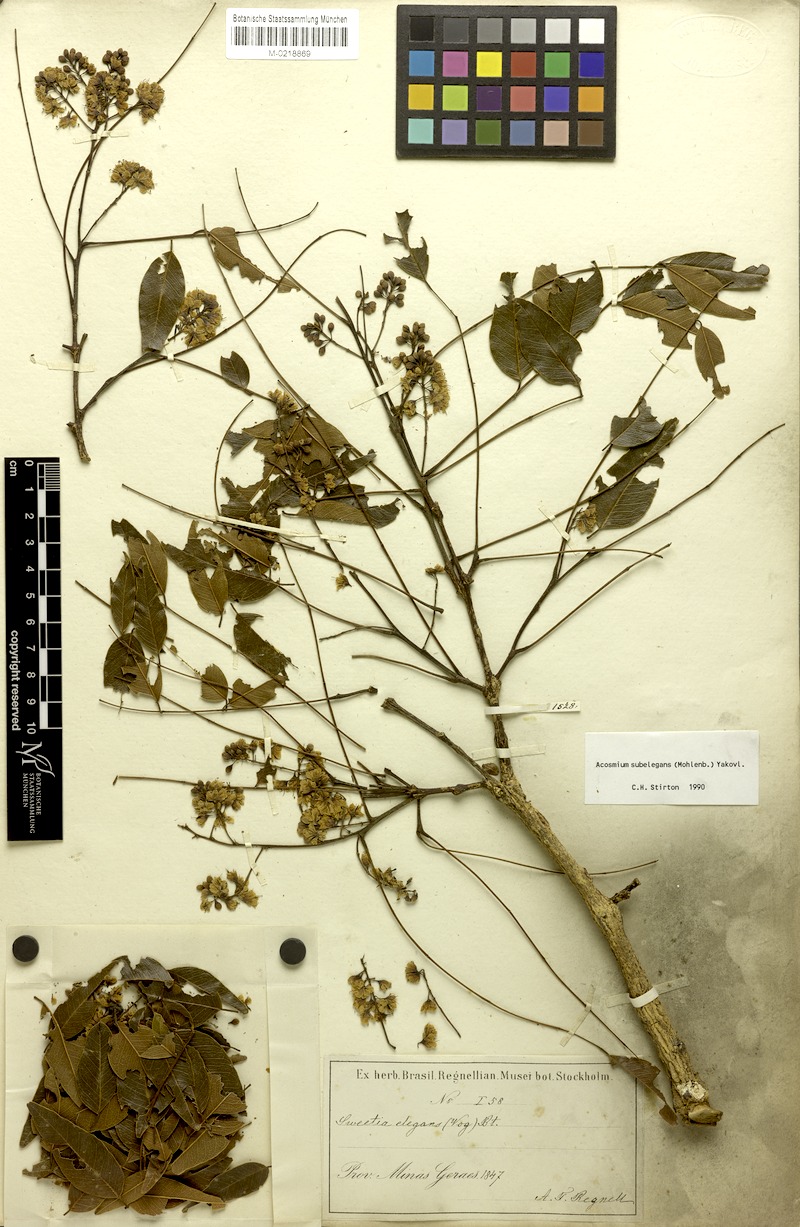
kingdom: Plantae
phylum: Tracheophyta
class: Magnoliopsida
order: Fabales
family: Fabaceae
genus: Leptolobium
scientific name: Leptolobium elegans
